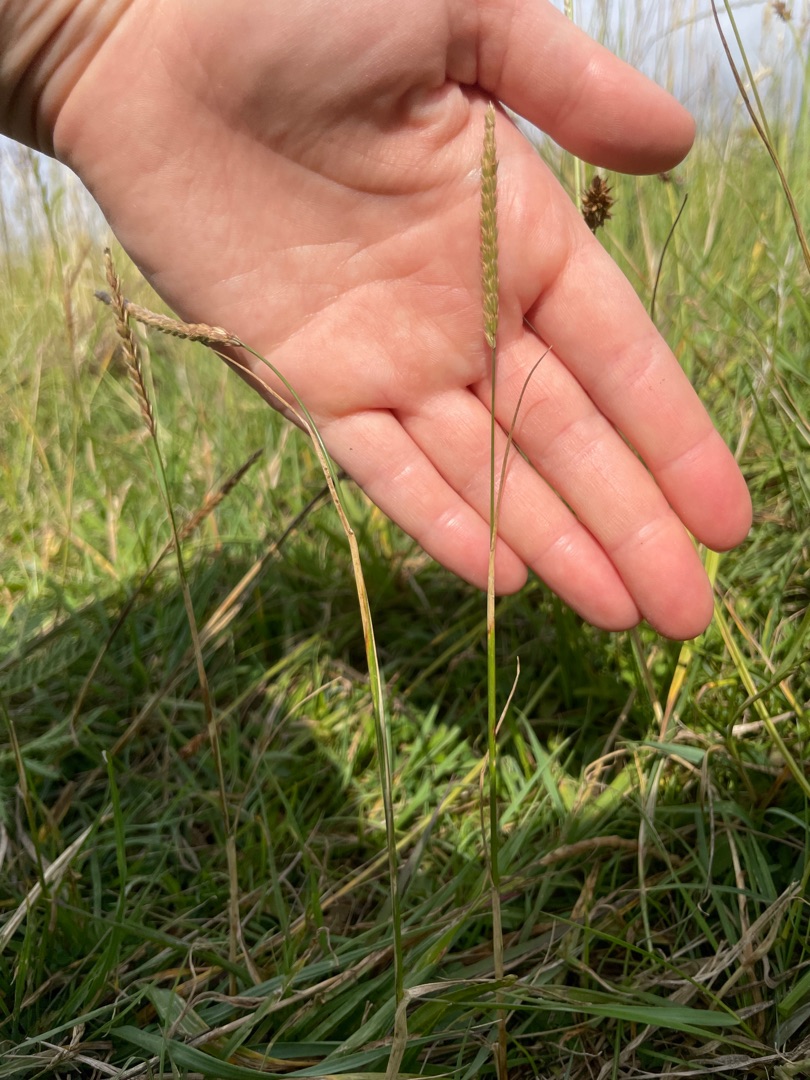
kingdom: Plantae
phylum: Tracheophyta
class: Liliopsida
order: Poales
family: Poaceae
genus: Cynosurus
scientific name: Cynosurus cristatus
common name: Kamgræs
